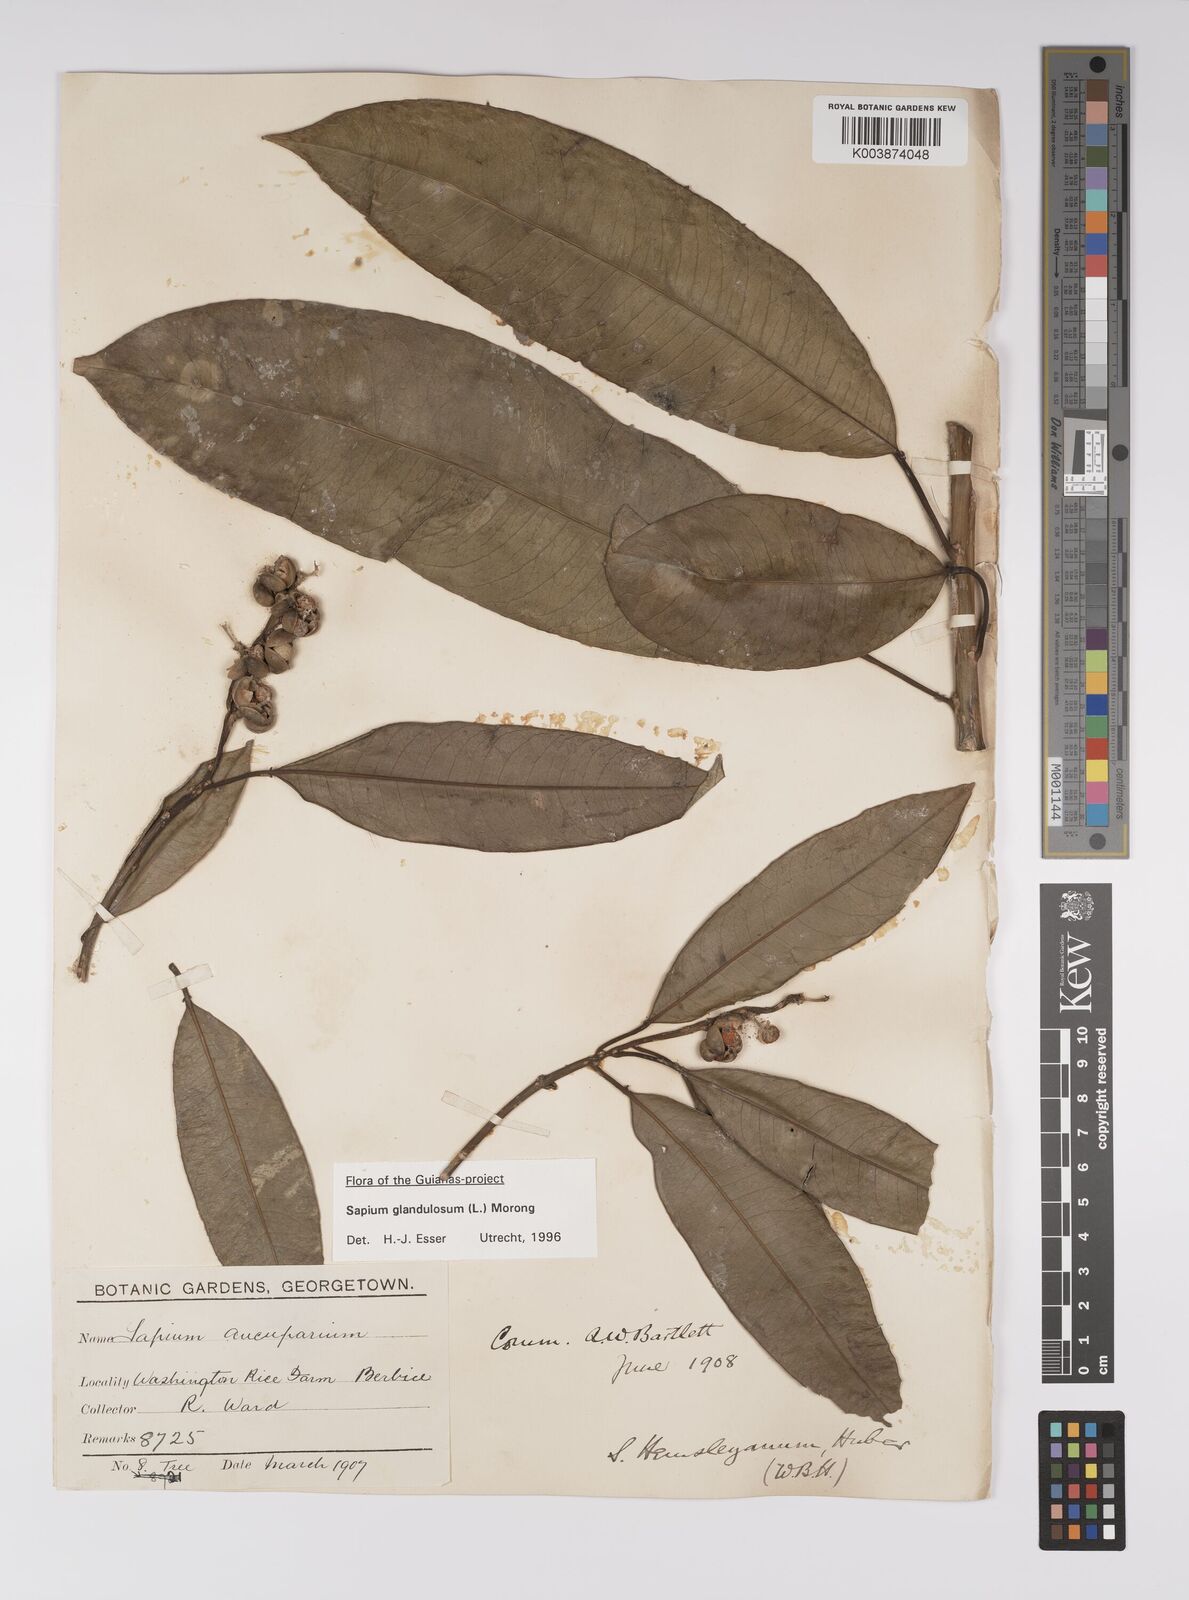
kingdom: Plantae
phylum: Tracheophyta
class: Magnoliopsida
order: Malpighiales
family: Euphorbiaceae
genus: Sapium
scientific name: Sapium glandulosum
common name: Milktree
